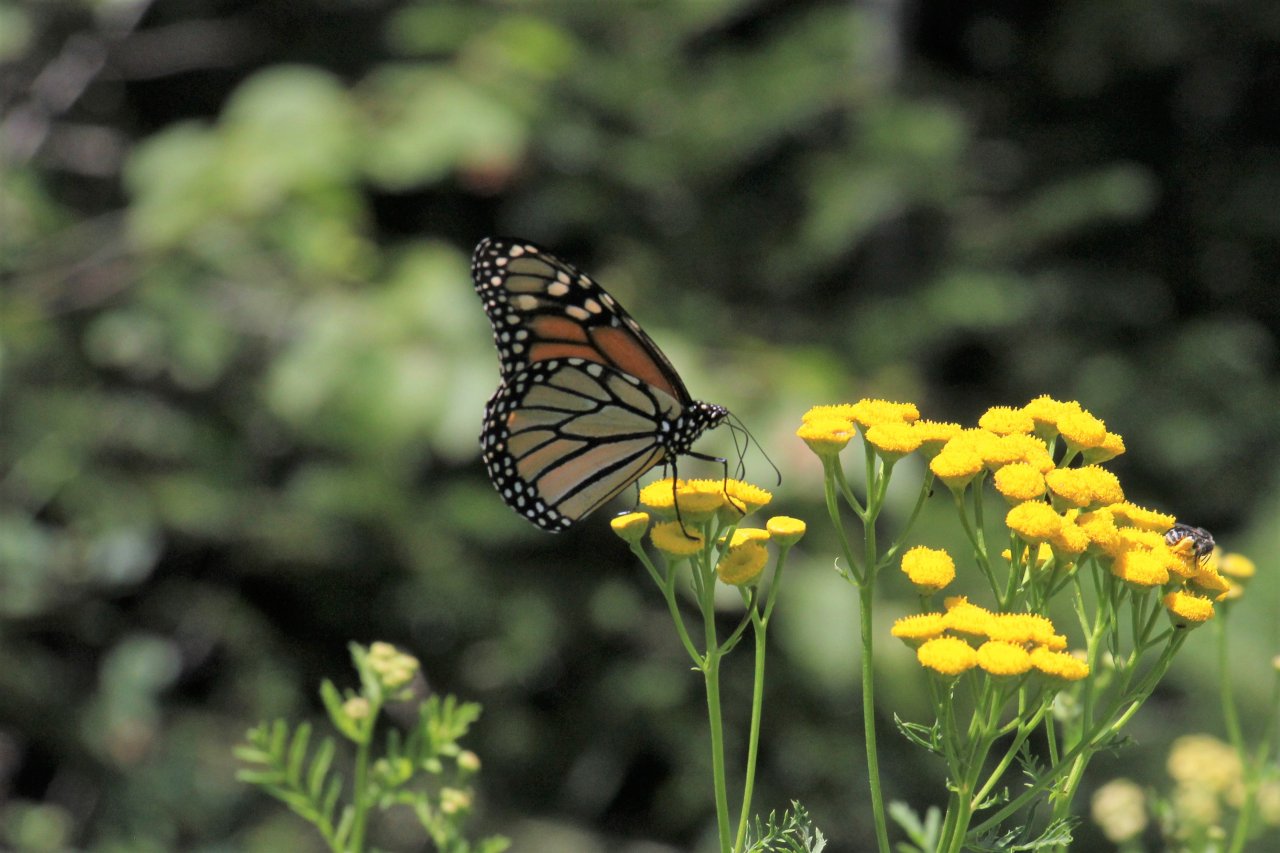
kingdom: Animalia
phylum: Arthropoda
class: Insecta
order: Lepidoptera
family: Nymphalidae
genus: Danaus
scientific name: Danaus plexippus
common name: Monarch
